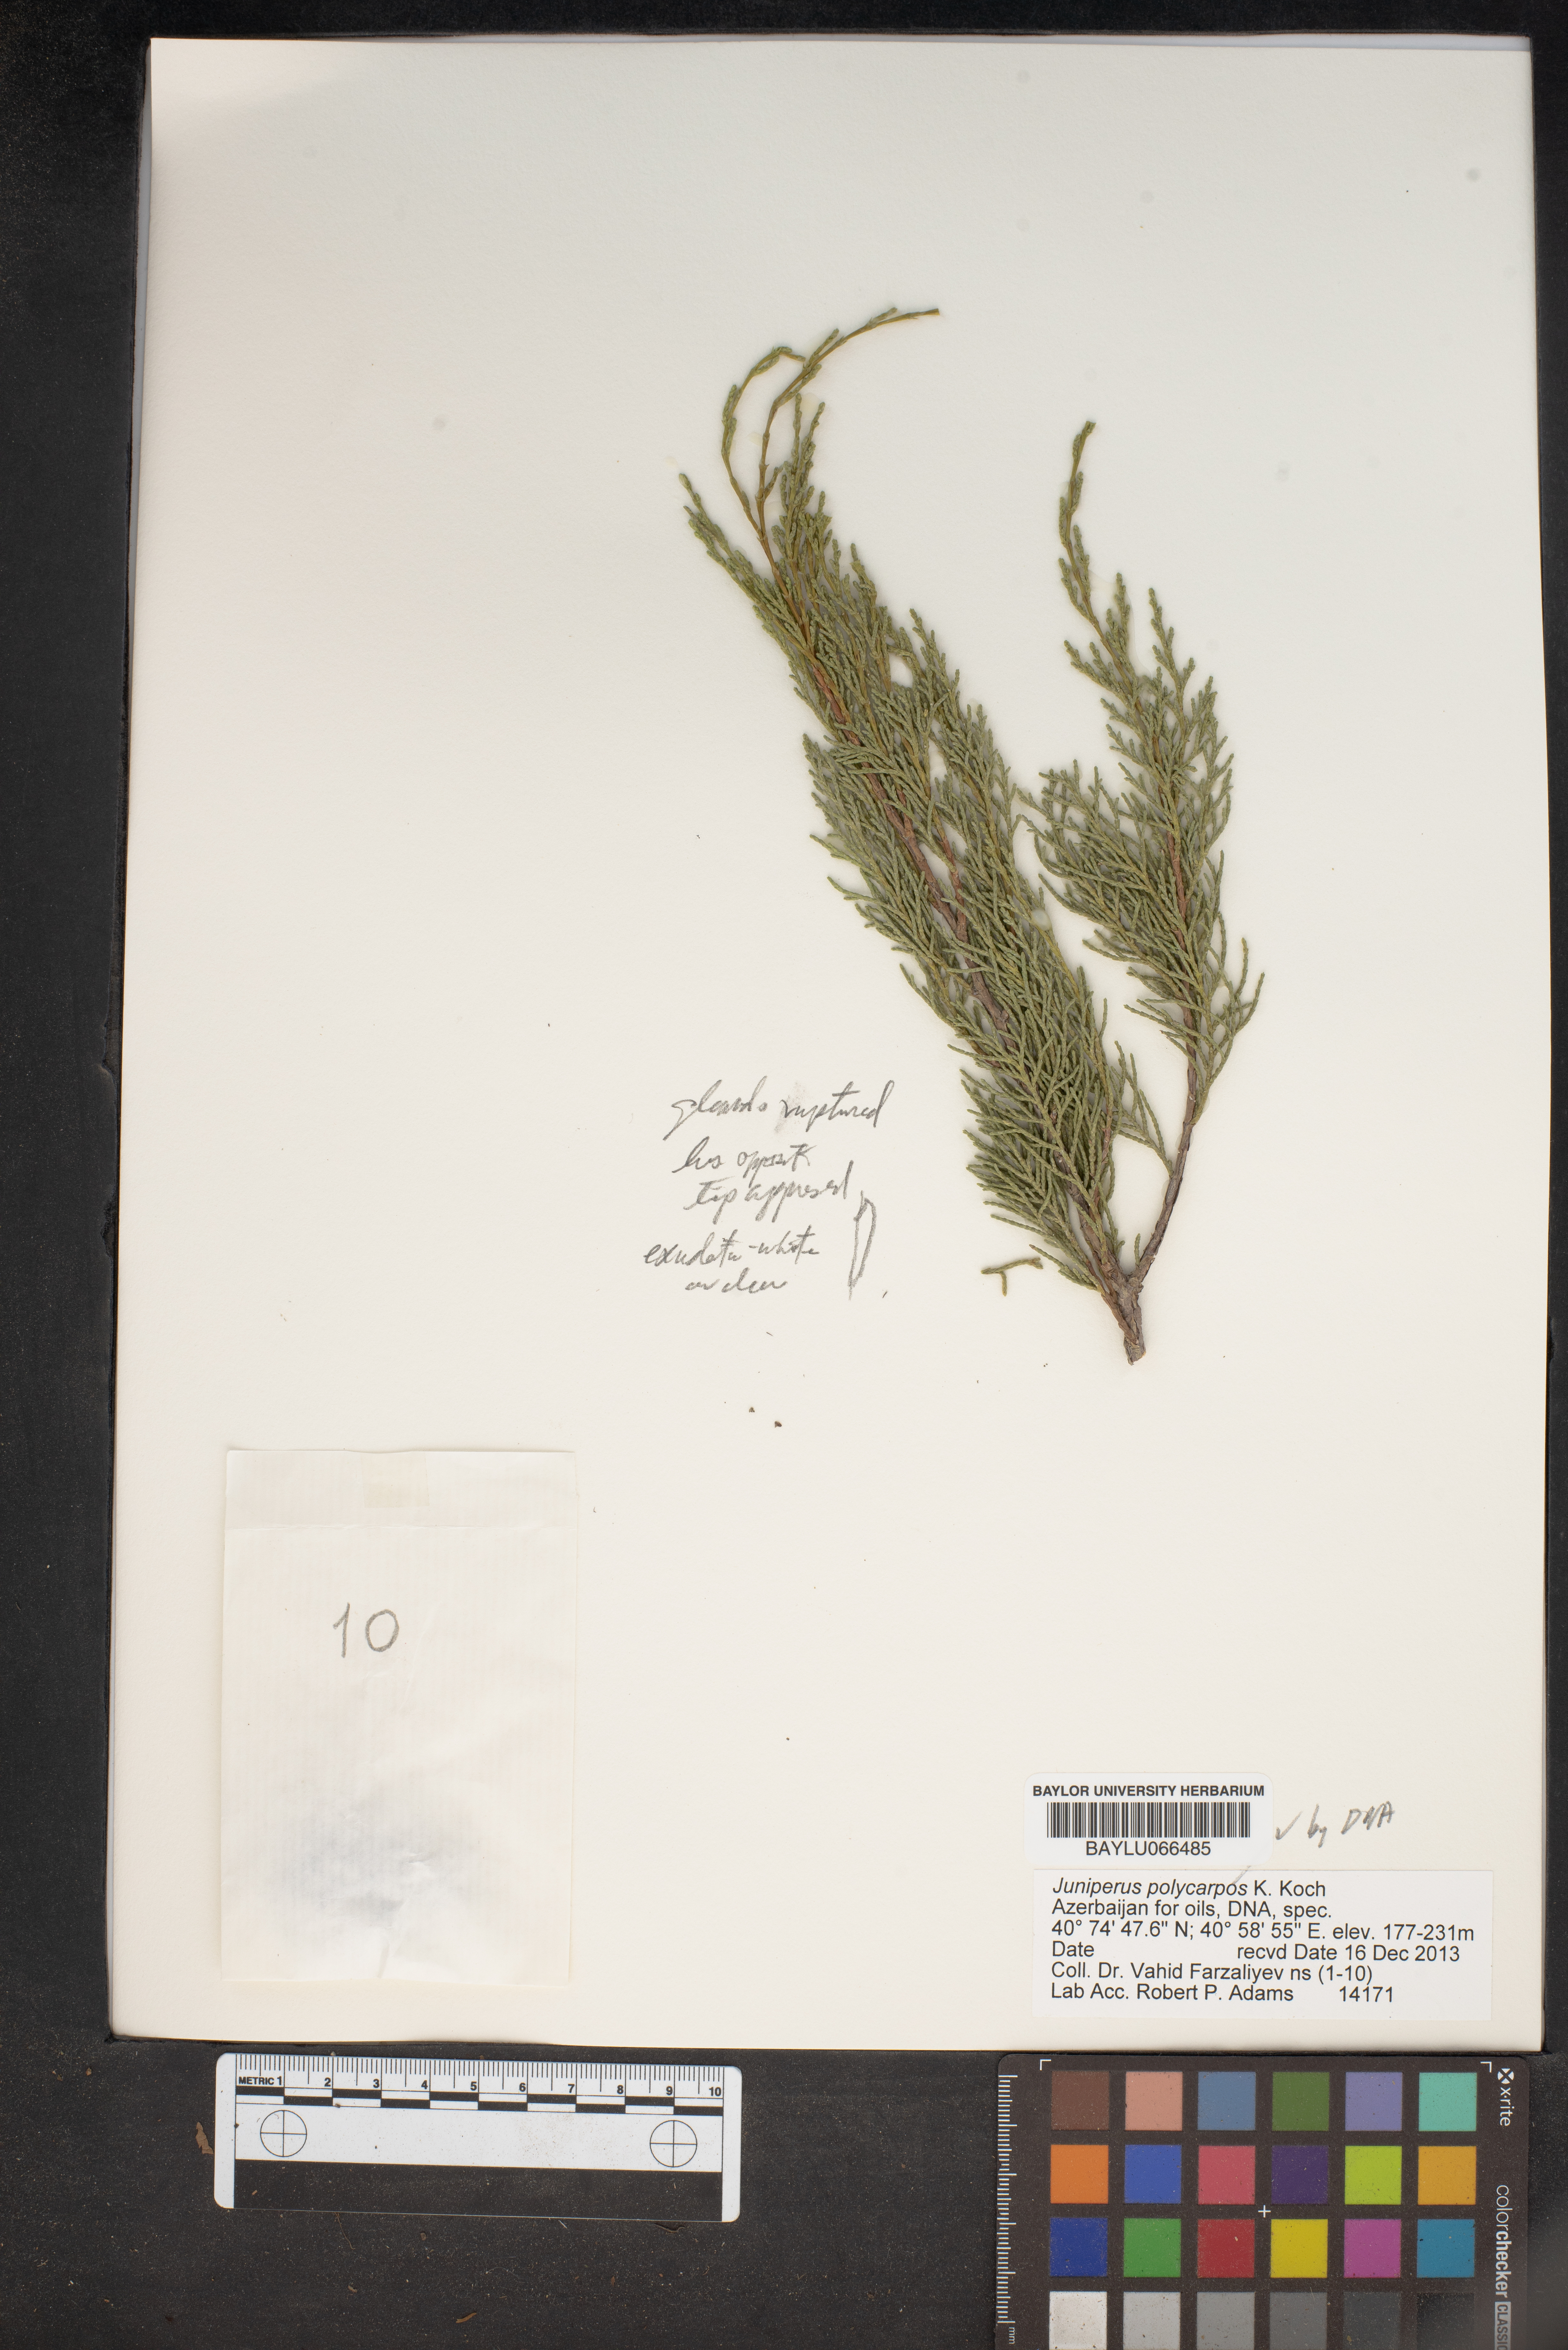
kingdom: Plantae
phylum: Tracheophyta
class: Pinopsida
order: Pinales
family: Cupressaceae
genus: Juniperus
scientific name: Juniperus excelsa
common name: Crimean juniper
